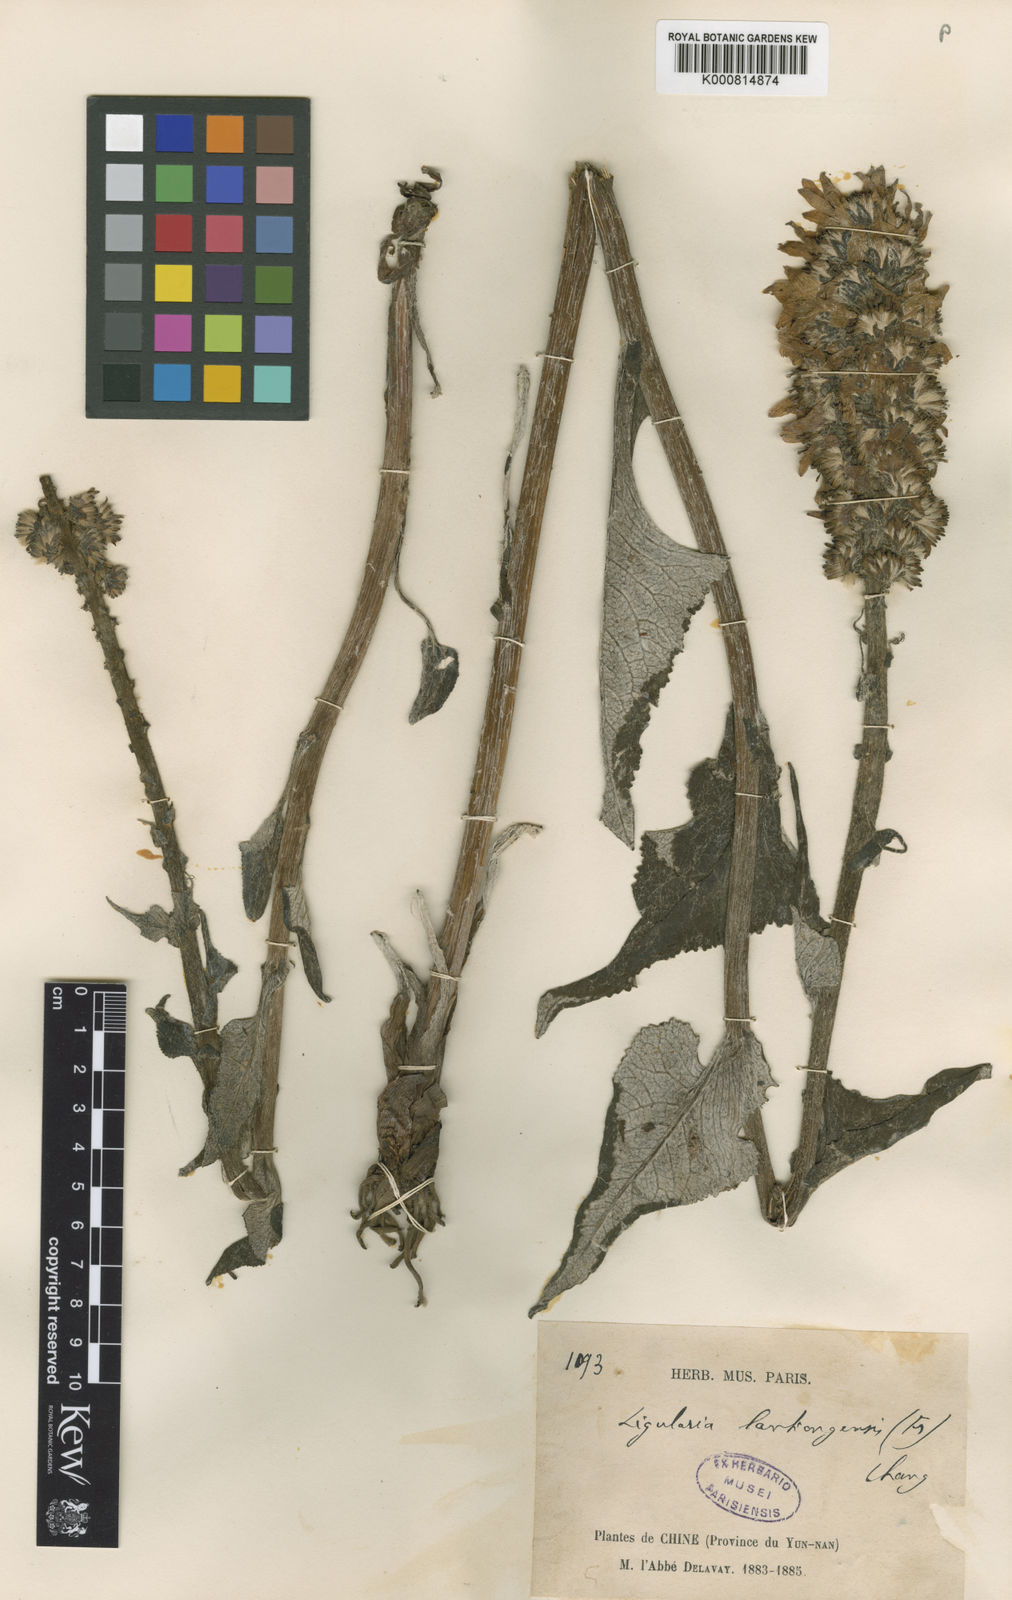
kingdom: Plantae
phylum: Tracheophyta
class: Magnoliopsida
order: Asterales
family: Asteraceae
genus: Ligularia
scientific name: Ligularia lankongensis
